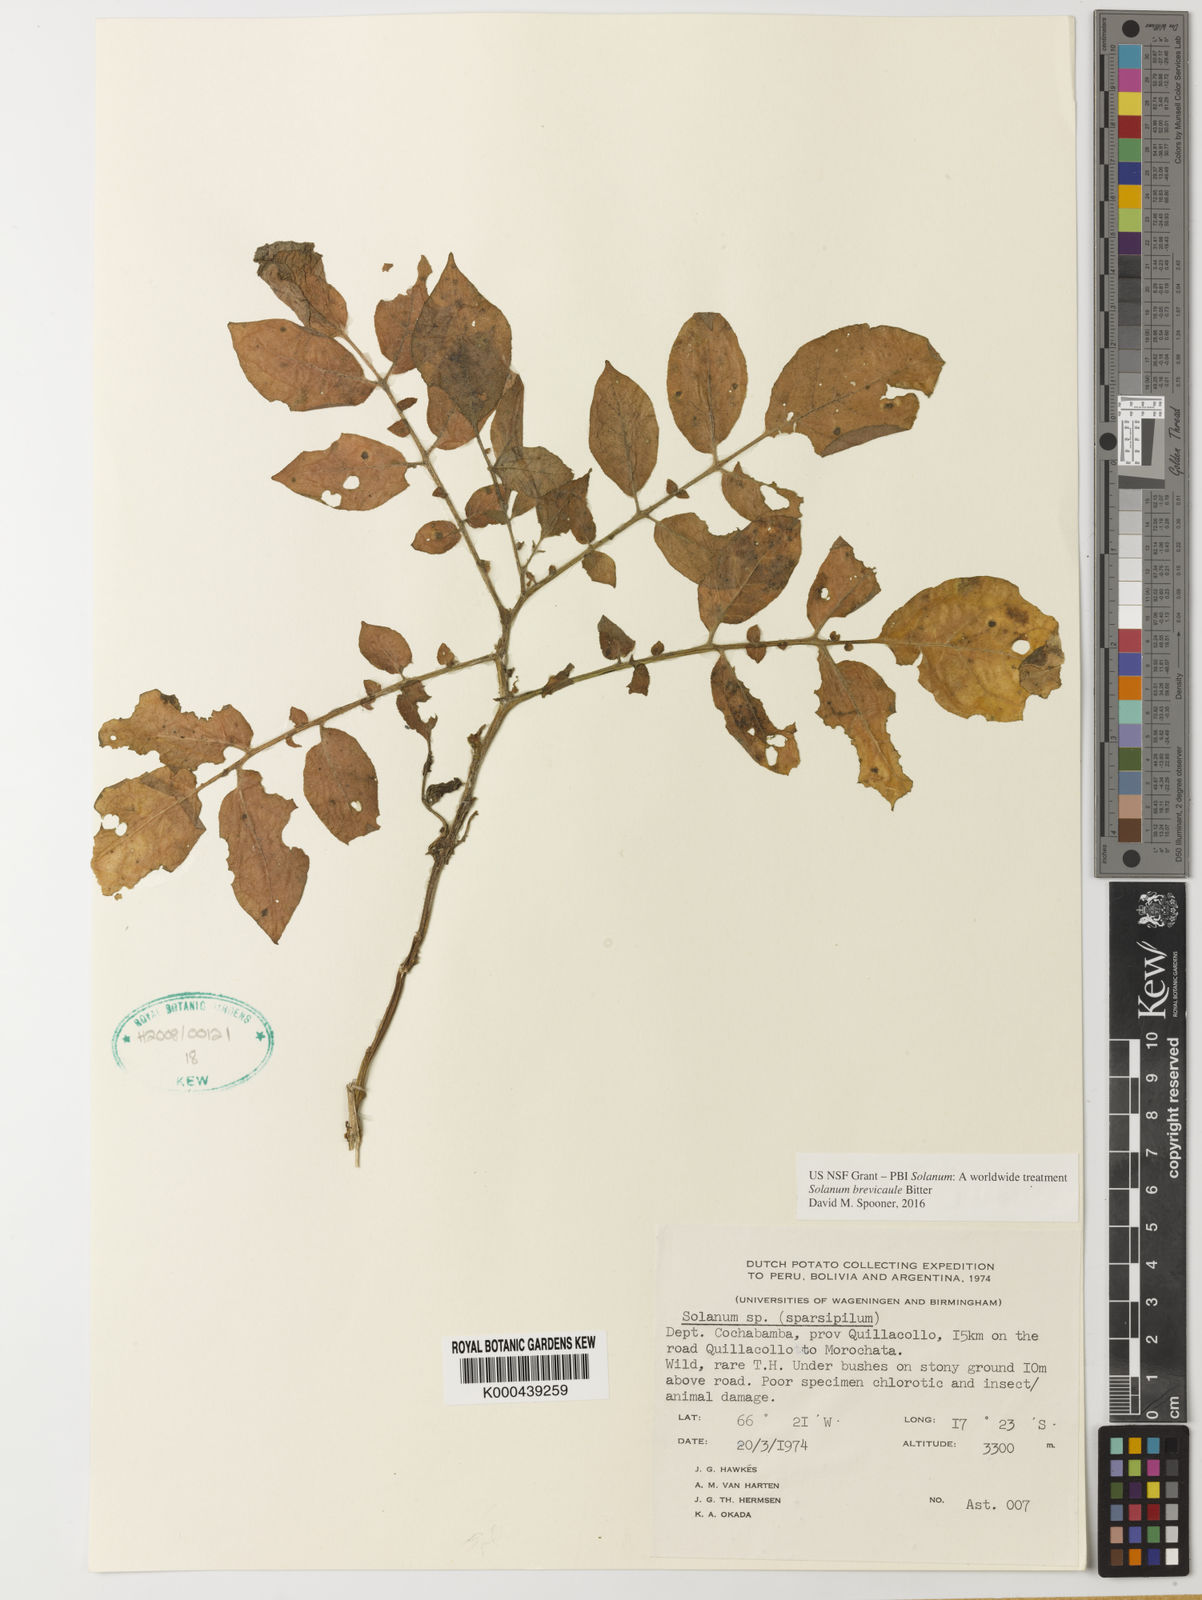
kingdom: Plantae
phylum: Tracheophyta
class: Magnoliopsida
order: Solanales
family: Solanaceae
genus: Solanum
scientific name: Solanum brevicaule
